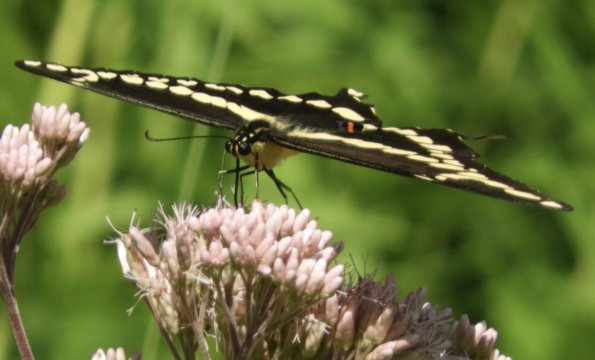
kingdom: Animalia
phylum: Arthropoda
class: Insecta
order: Lepidoptera
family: Papilionidae
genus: Papilio
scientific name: Papilio cresphontes
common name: Eastern Giant Swallowtail
